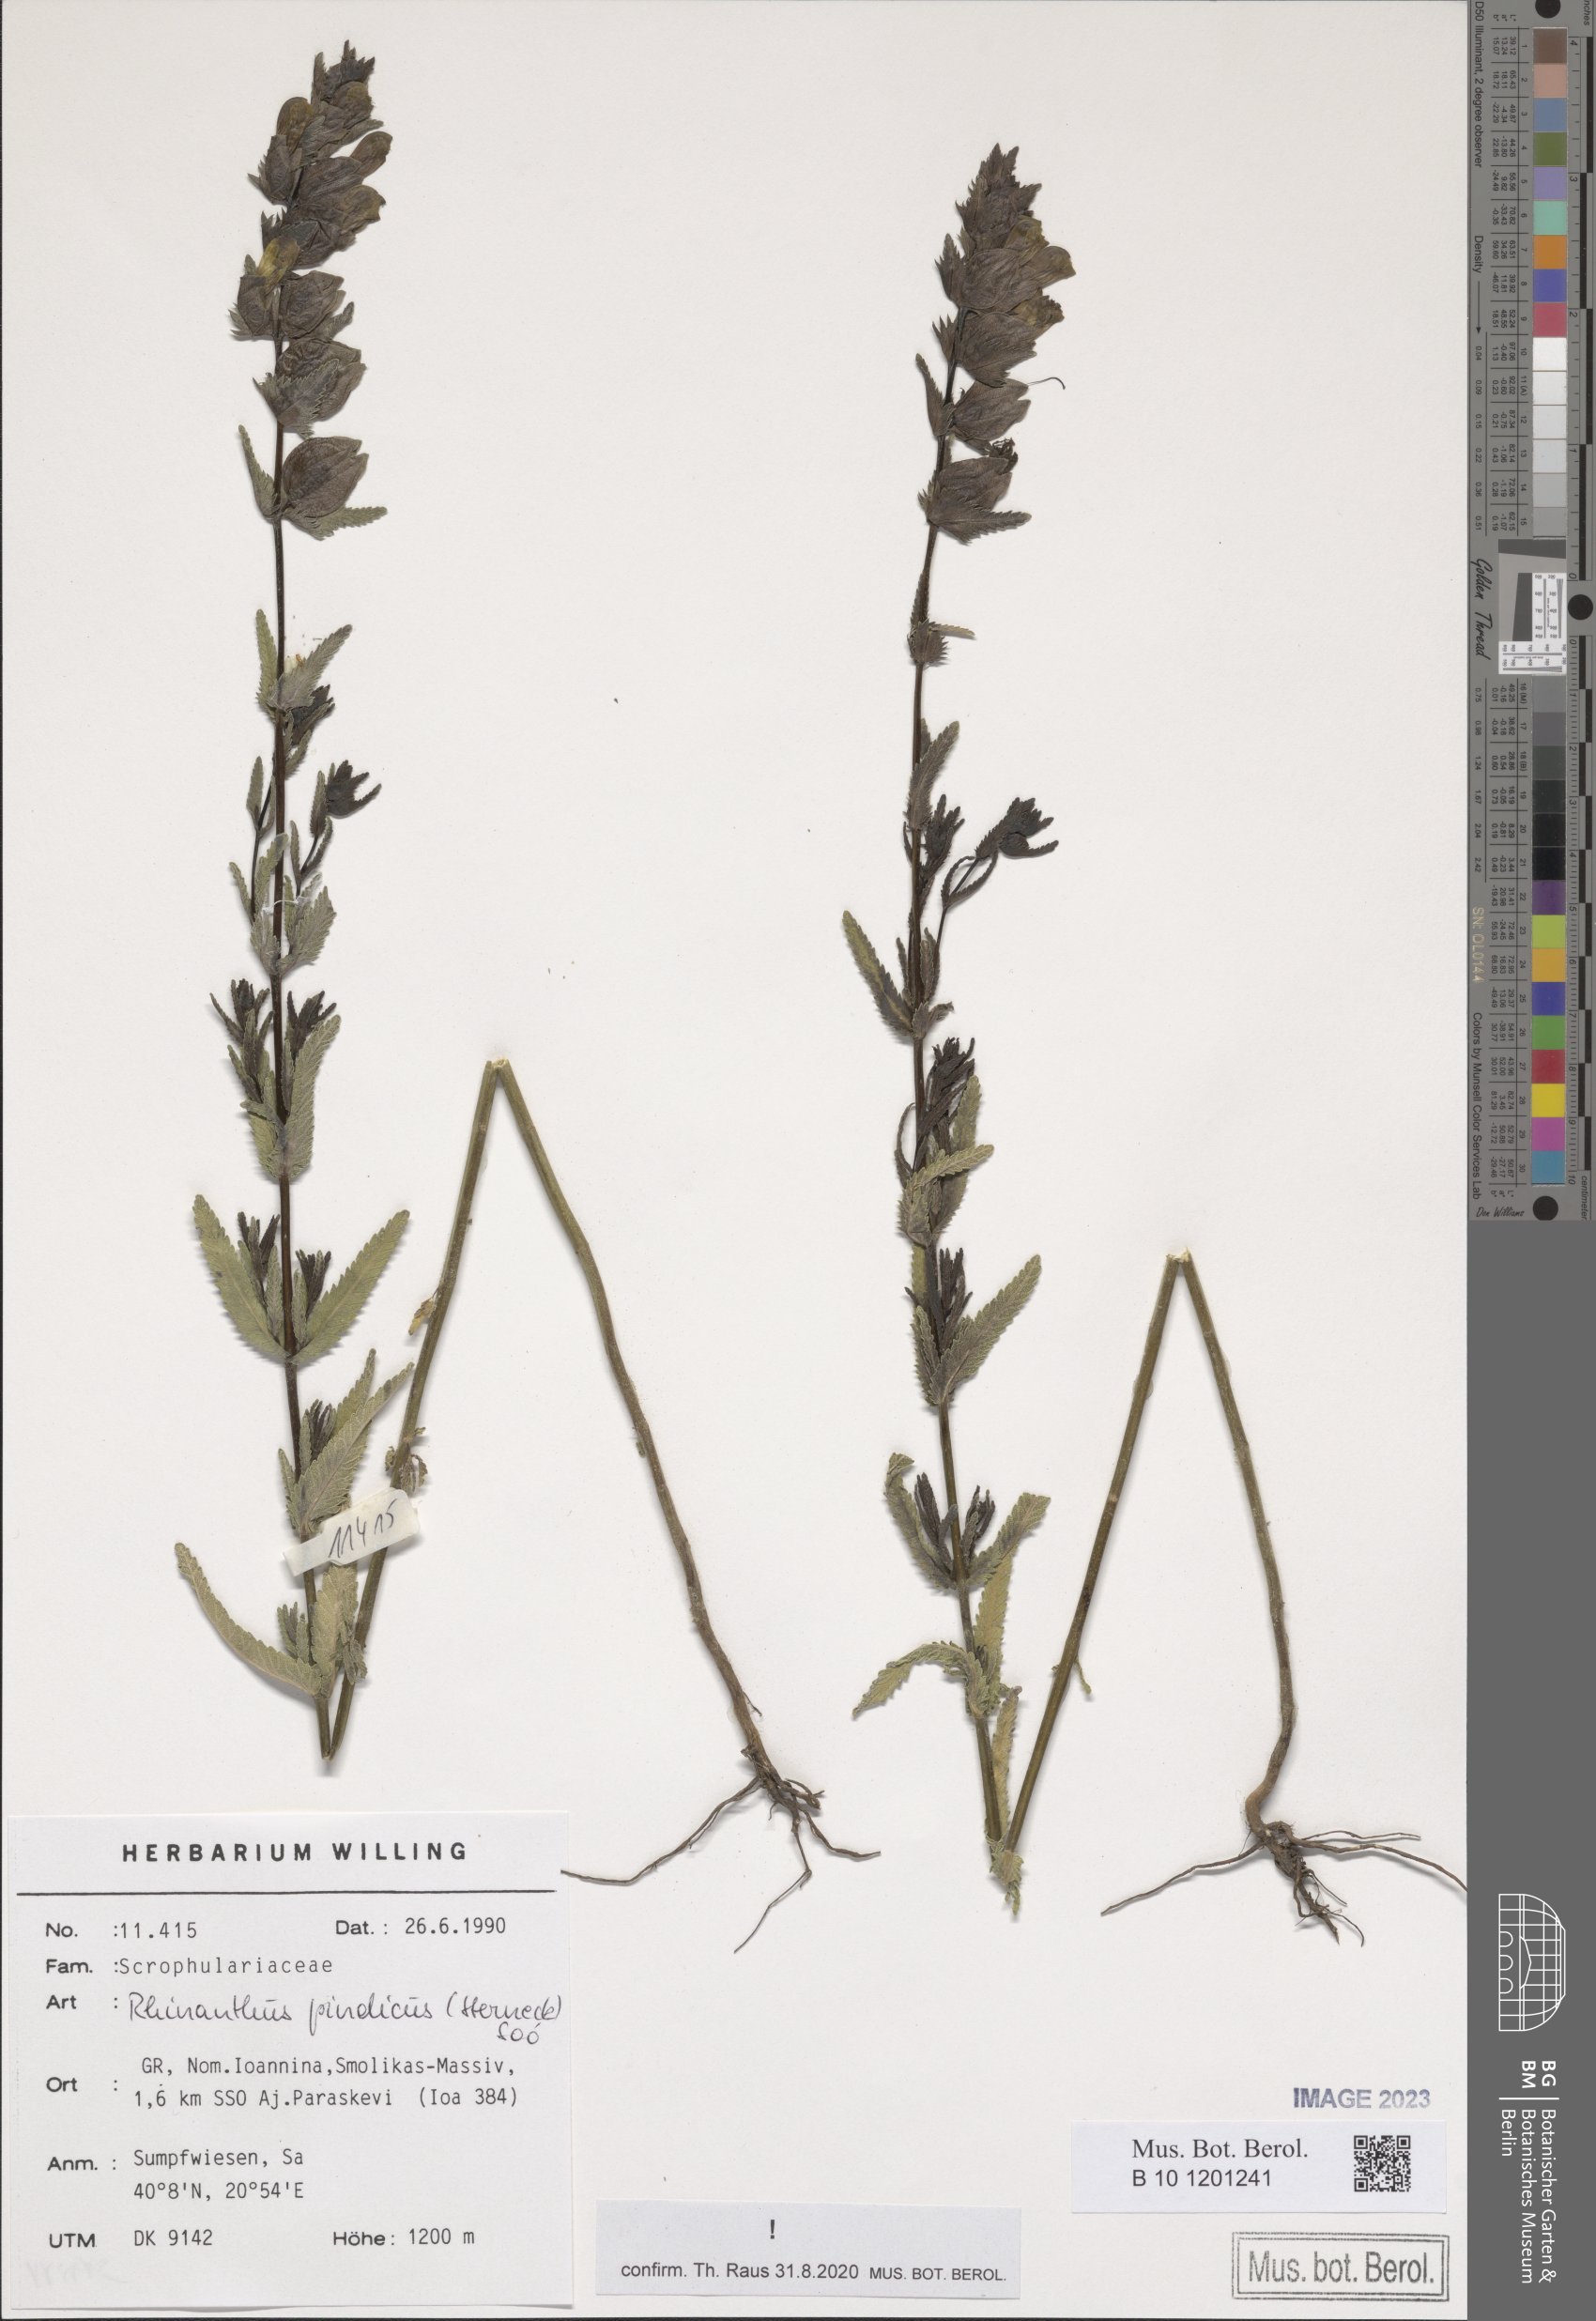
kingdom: Plantae
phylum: Tracheophyta
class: Magnoliopsida
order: Lamiales
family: Orobanchaceae
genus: Rhinanthus
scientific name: Rhinanthus pindicus
